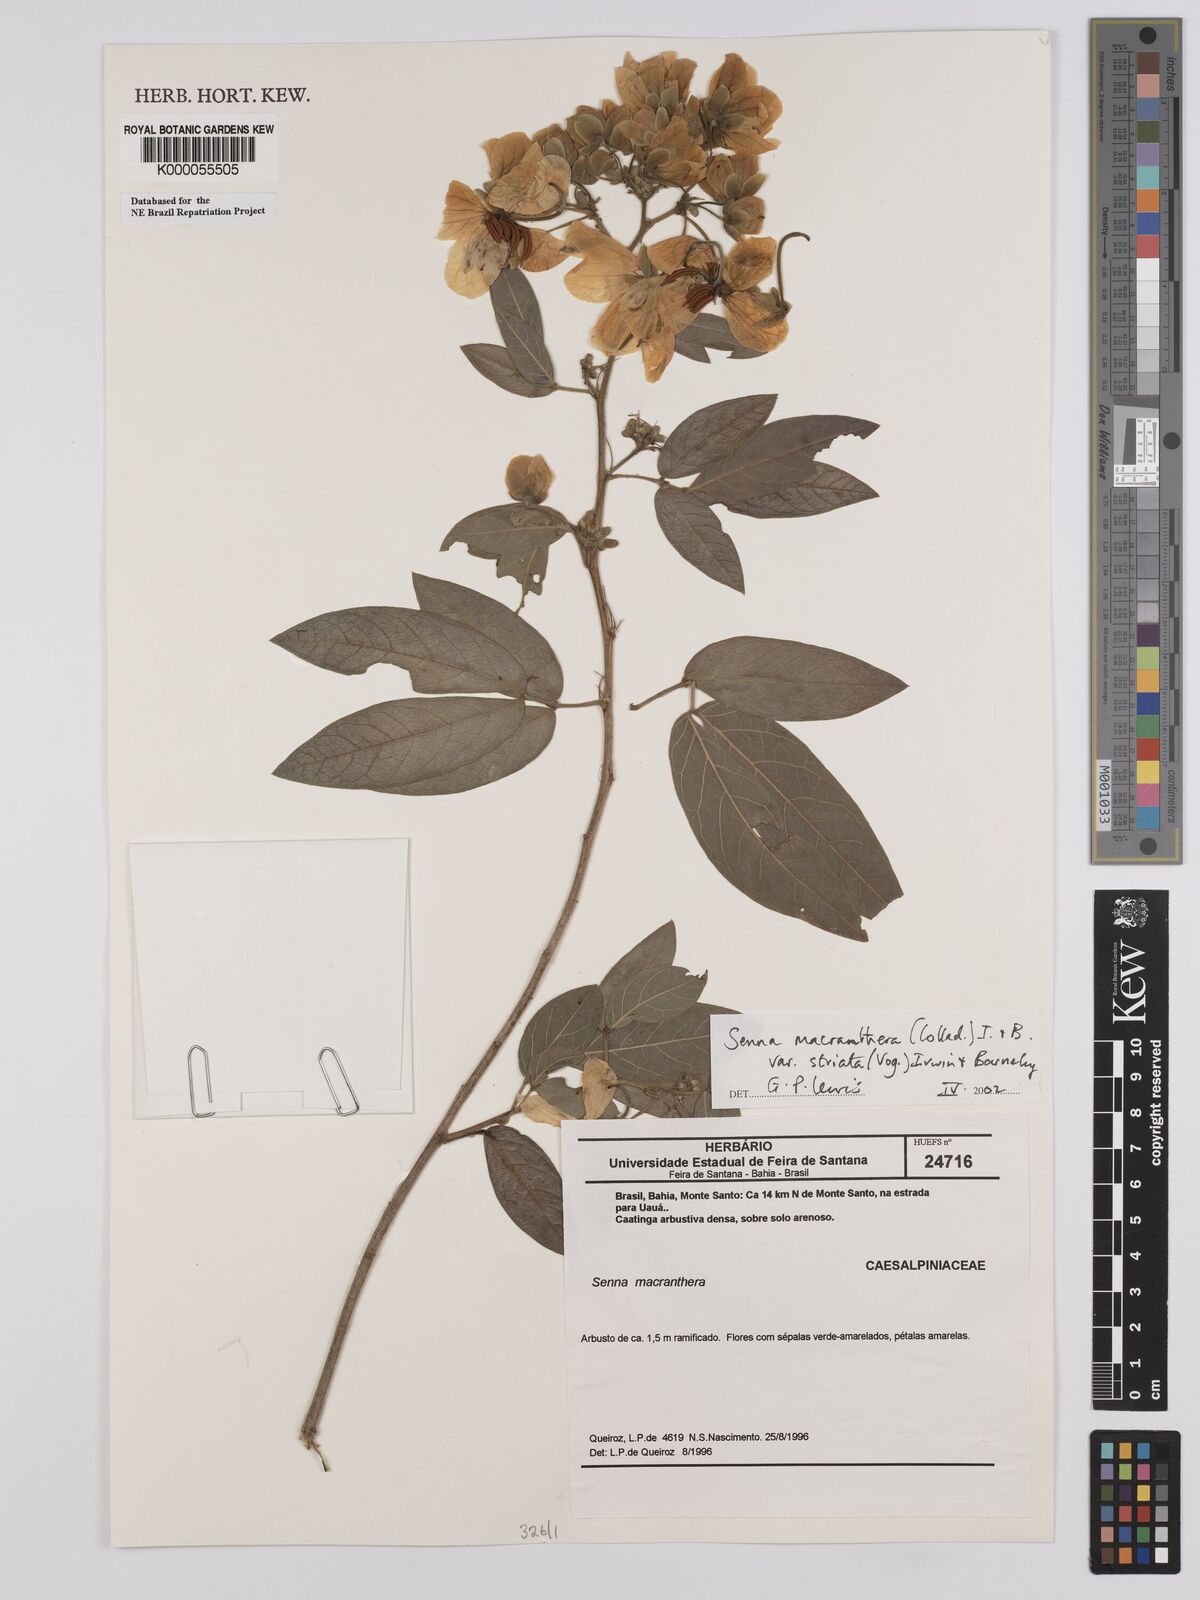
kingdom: Plantae
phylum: Tracheophyta
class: Magnoliopsida
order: Fabales
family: Fabaceae
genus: Senna
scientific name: Senna macranthera
